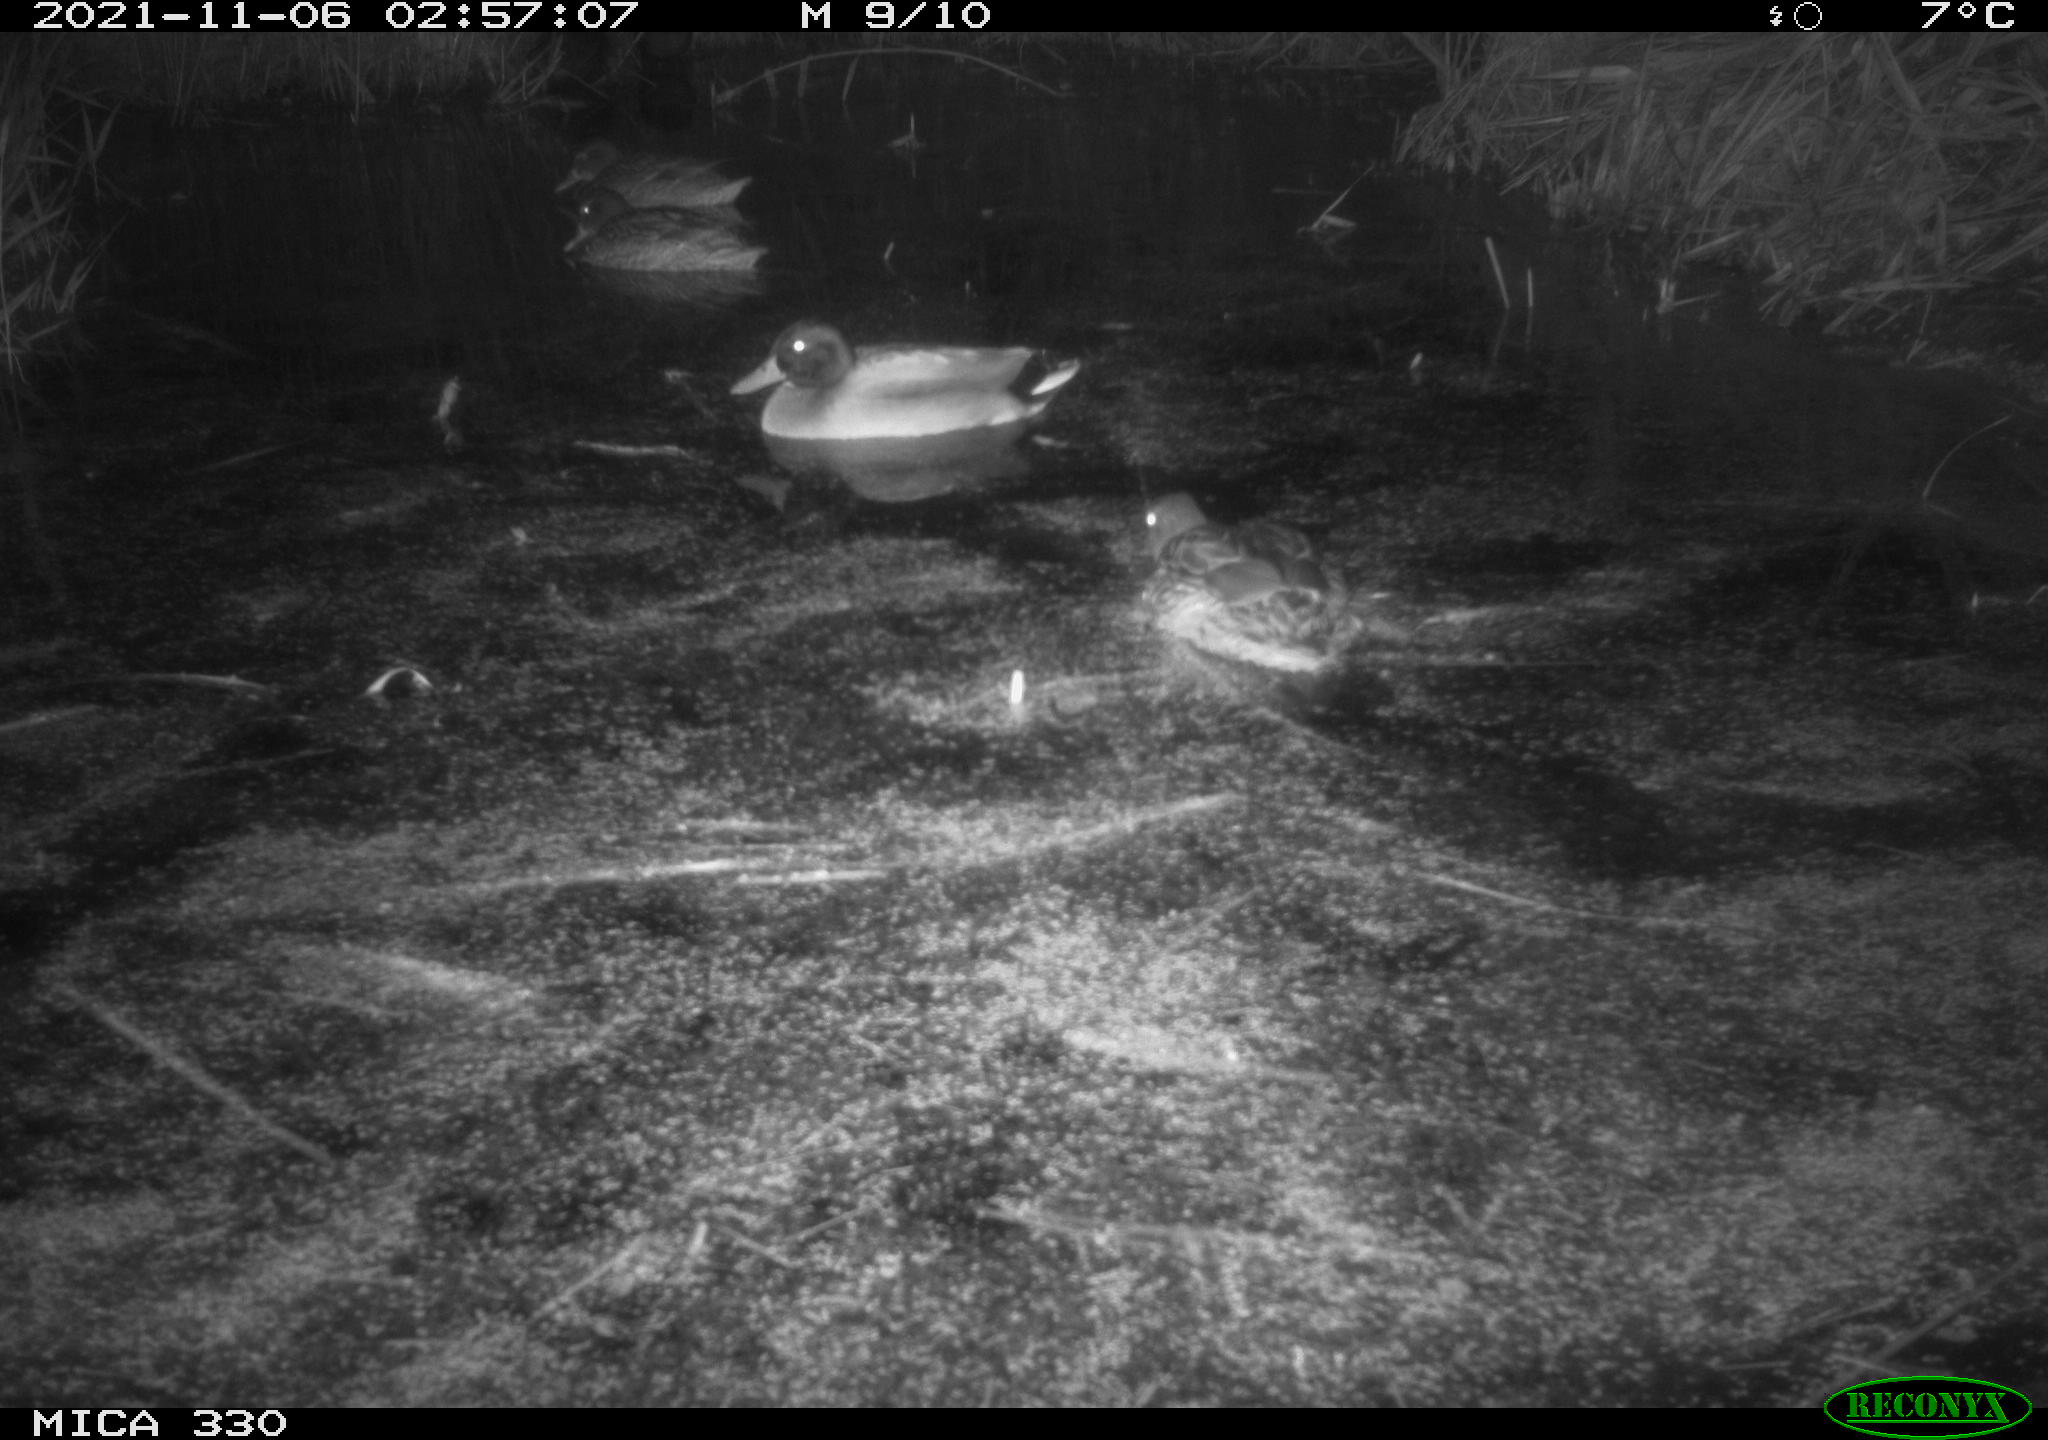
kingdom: Animalia
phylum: Chordata
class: Aves
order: Anseriformes
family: Anatidae
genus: Anas
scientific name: Anas platyrhynchos
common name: Mallard
